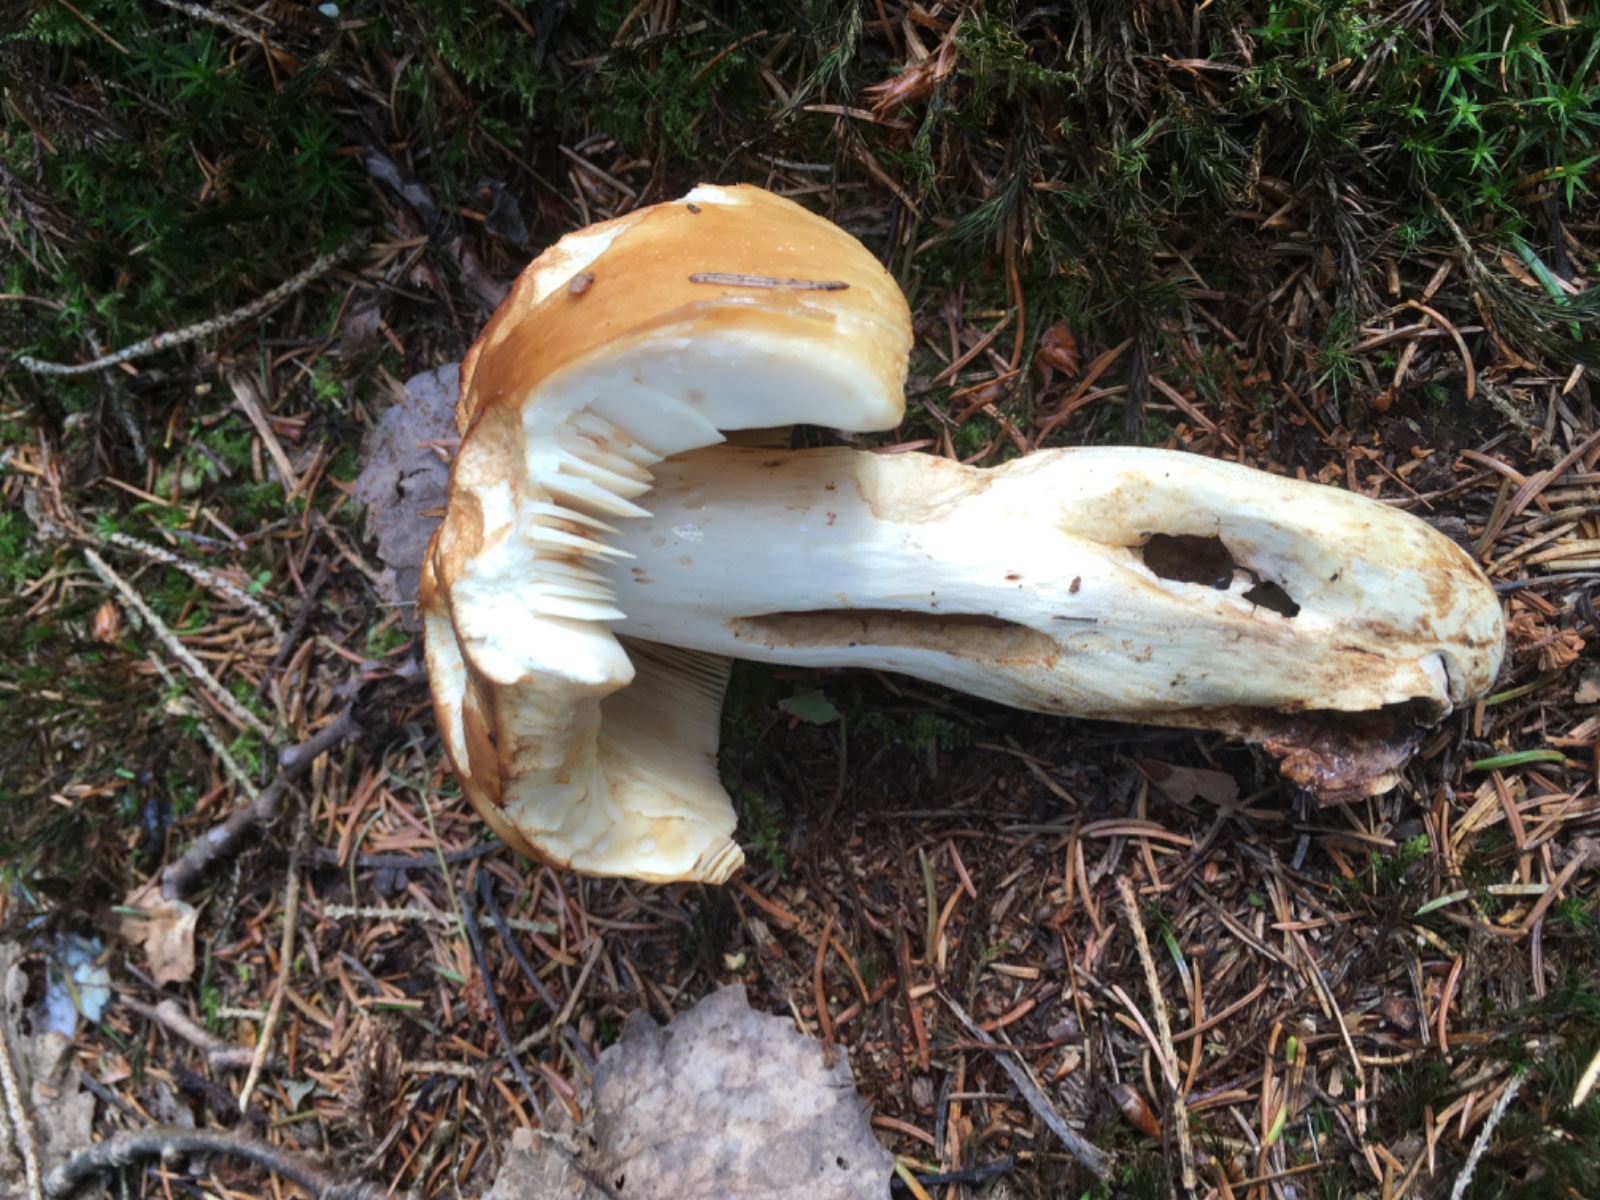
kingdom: Fungi
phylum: Basidiomycota
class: Agaricomycetes
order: Russulales
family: Russulaceae
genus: Russula
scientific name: Russula foetens
